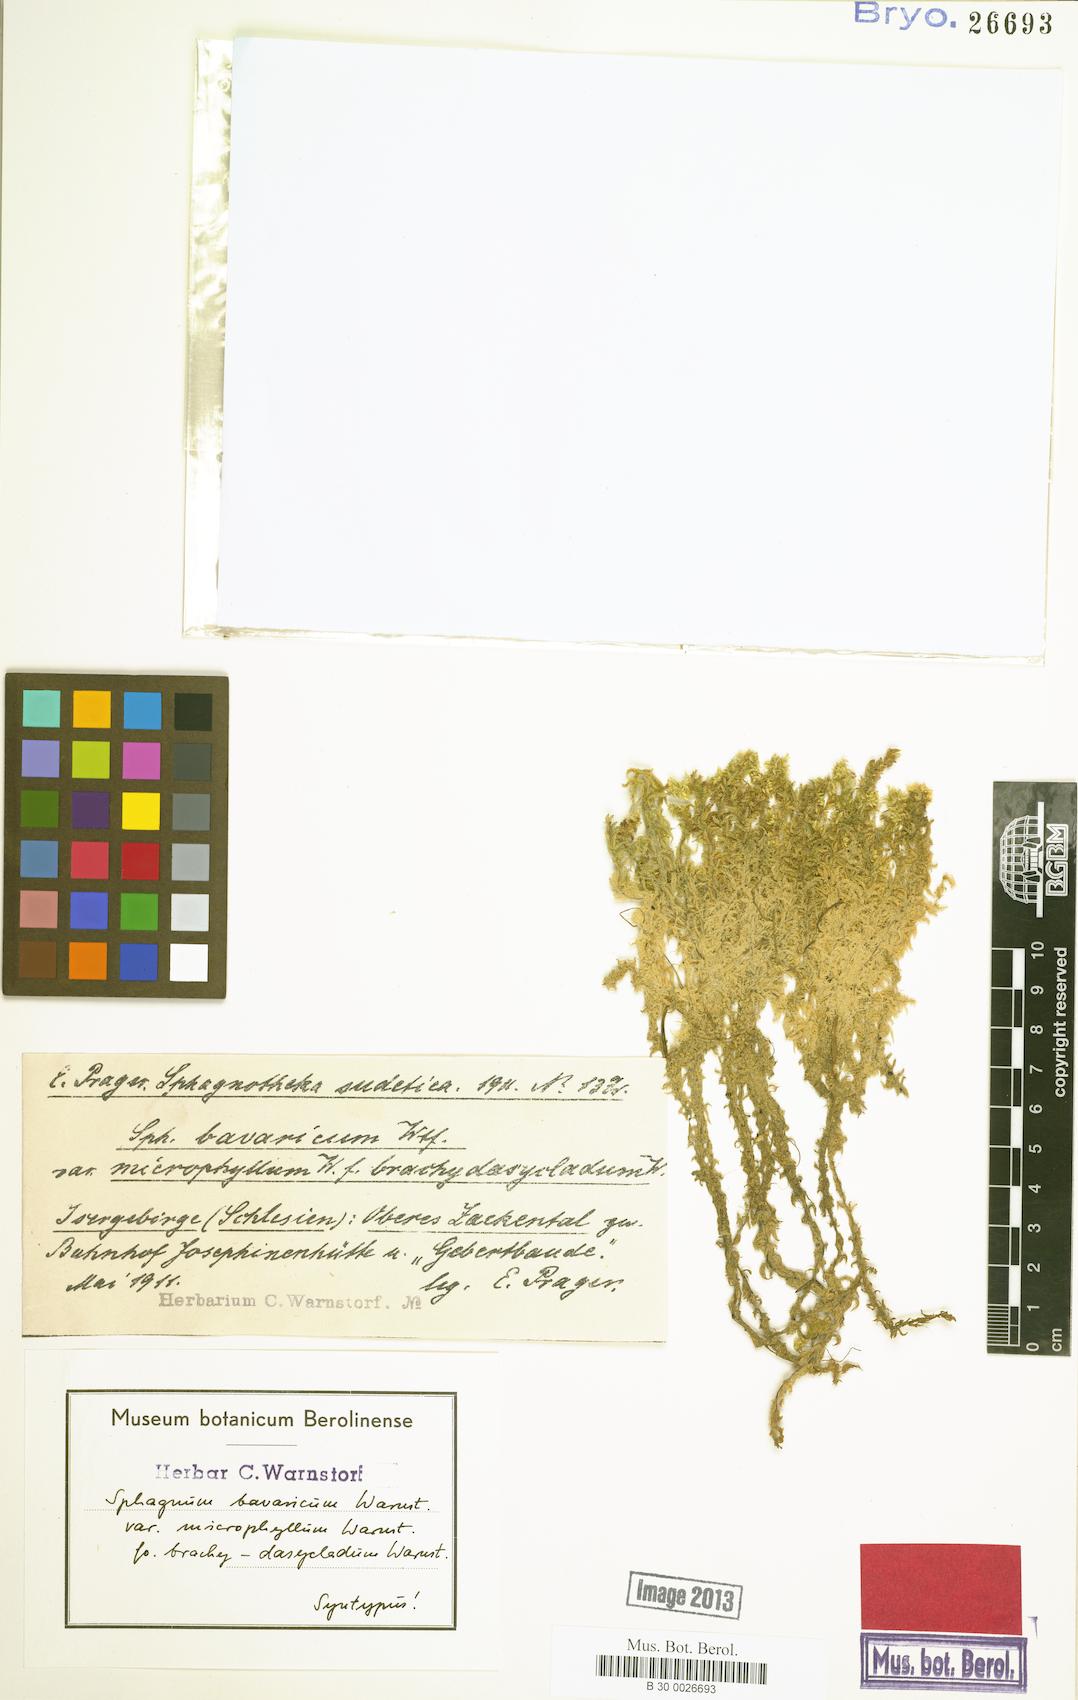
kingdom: Plantae
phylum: Bryophyta
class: Sphagnopsida
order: Sphagnales
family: Sphagnaceae
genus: Sphagnum
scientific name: Sphagnum inundatum
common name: Lesser cow-horn bog-moss
